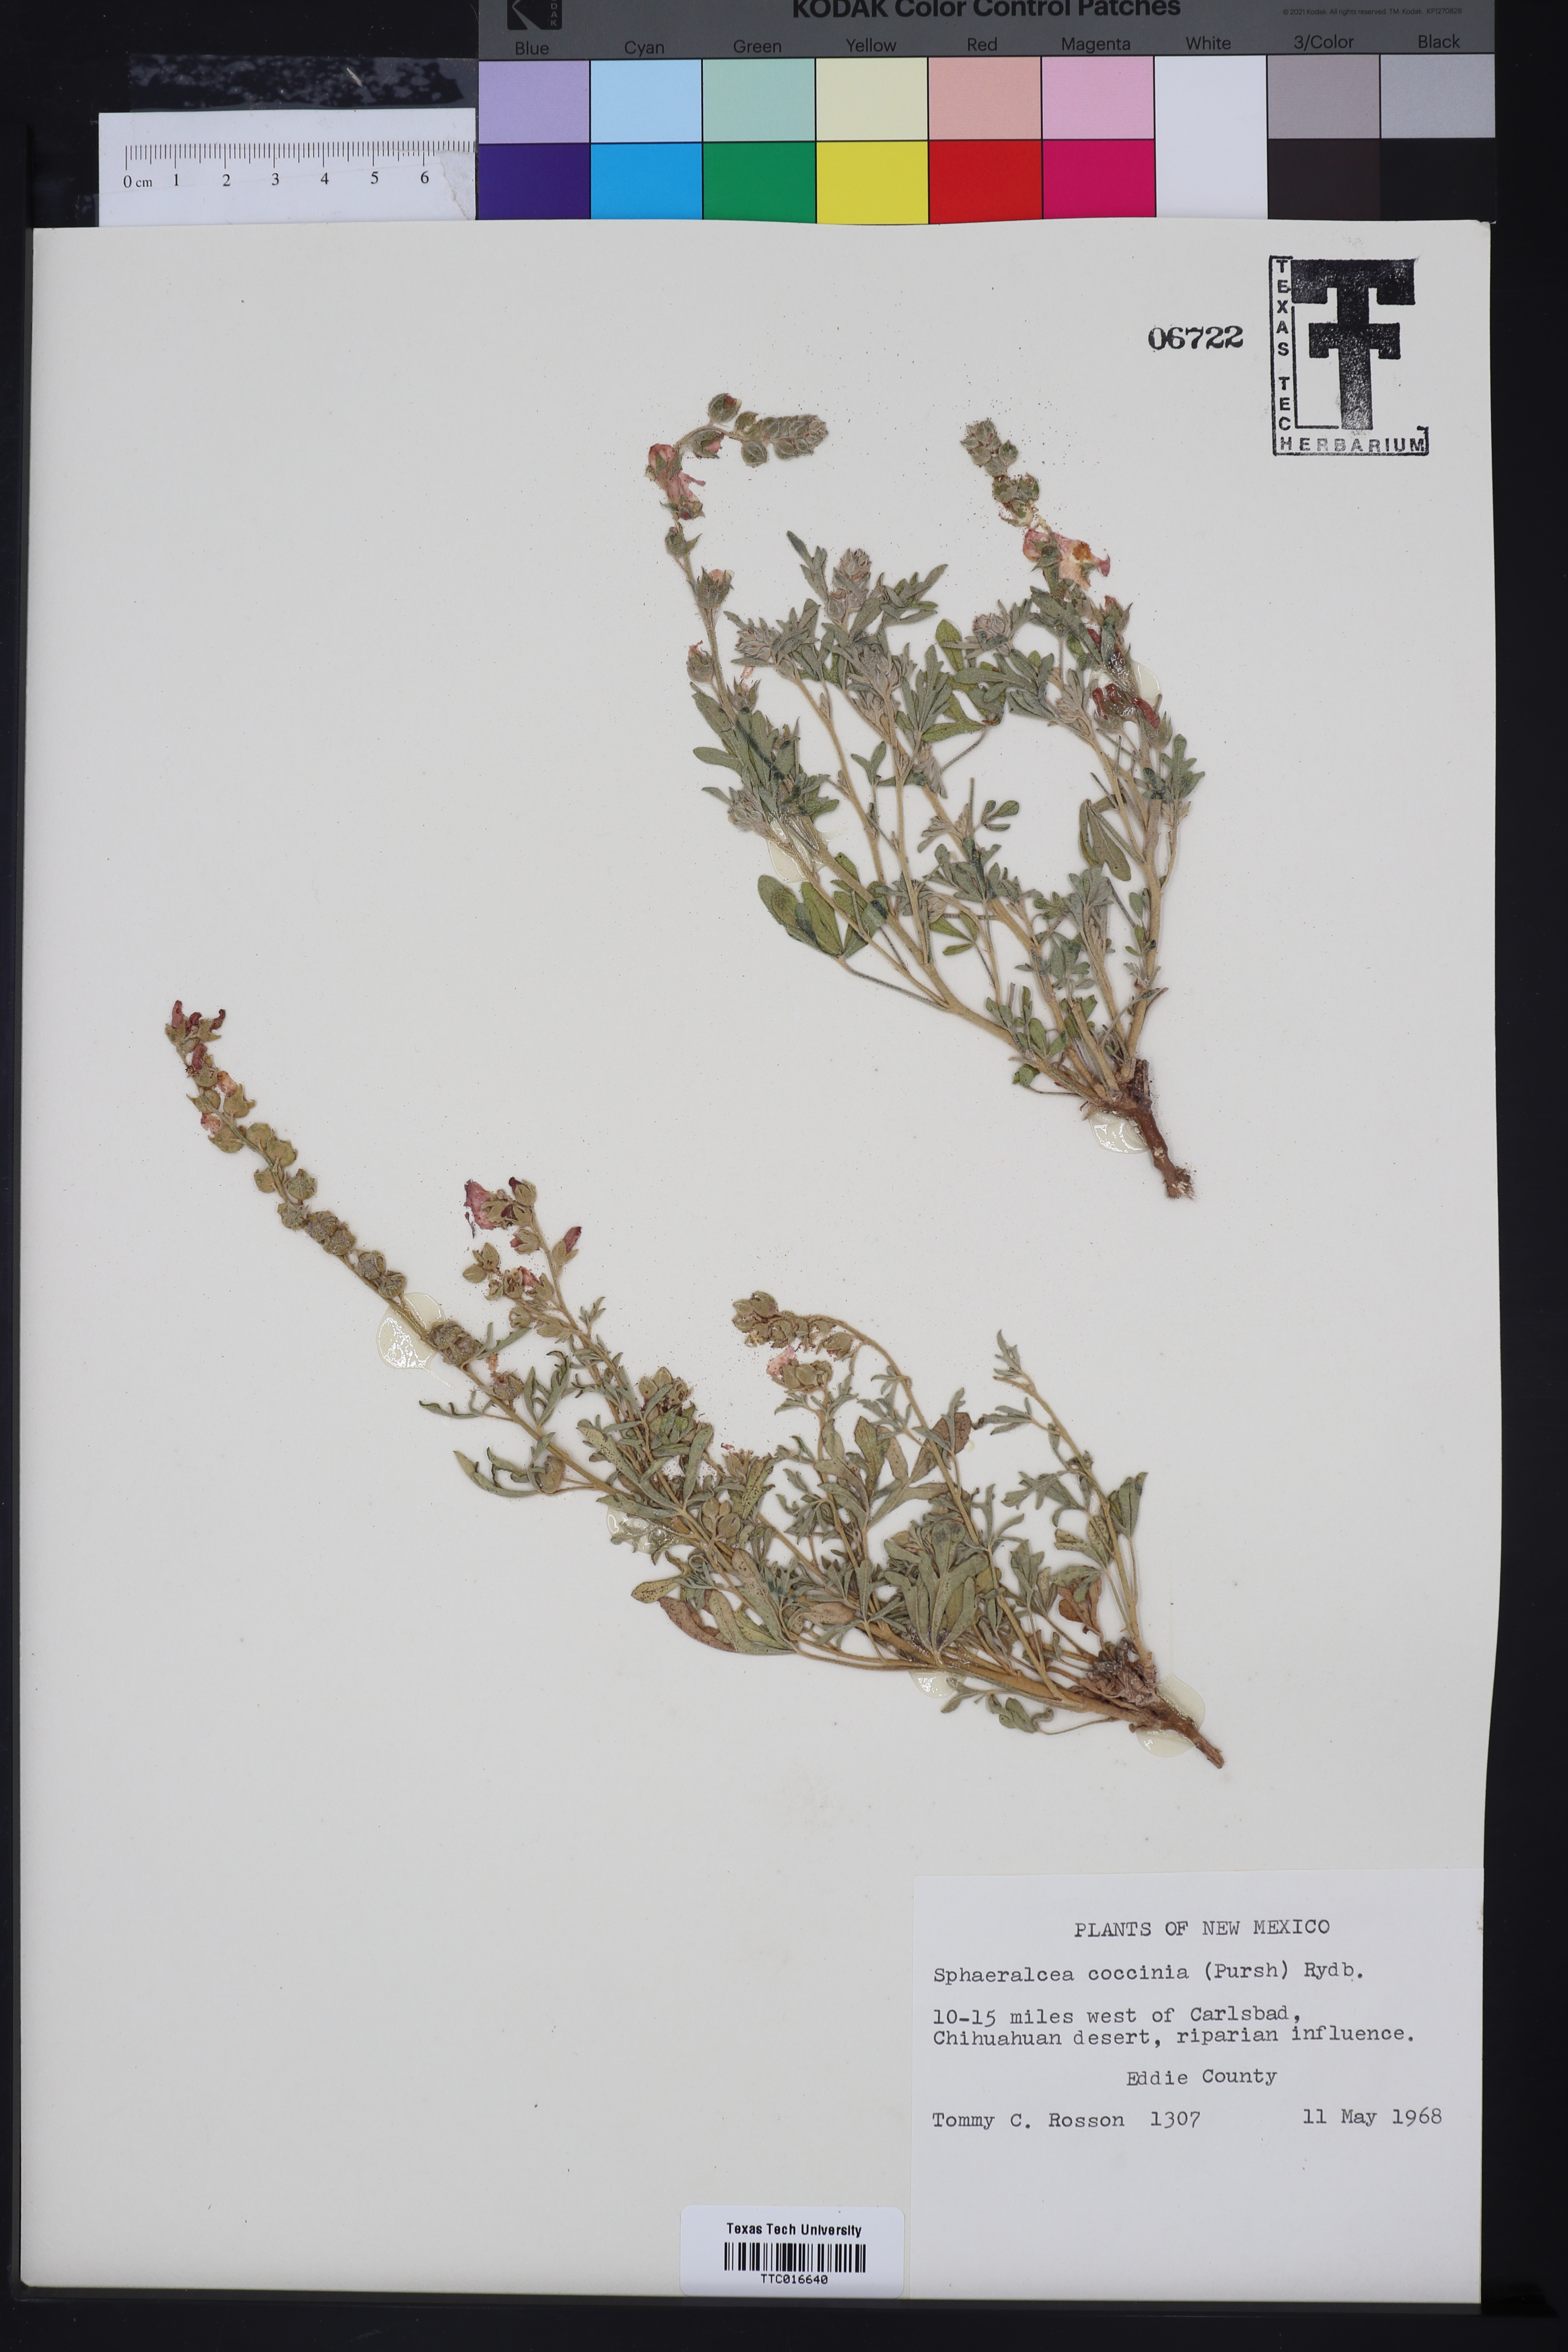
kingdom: Plantae
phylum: Tracheophyta
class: Magnoliopsida
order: Malvales
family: Malvaceae
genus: Sphaeralcea
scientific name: Sphaeralcea coccinea
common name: Moss-rose
